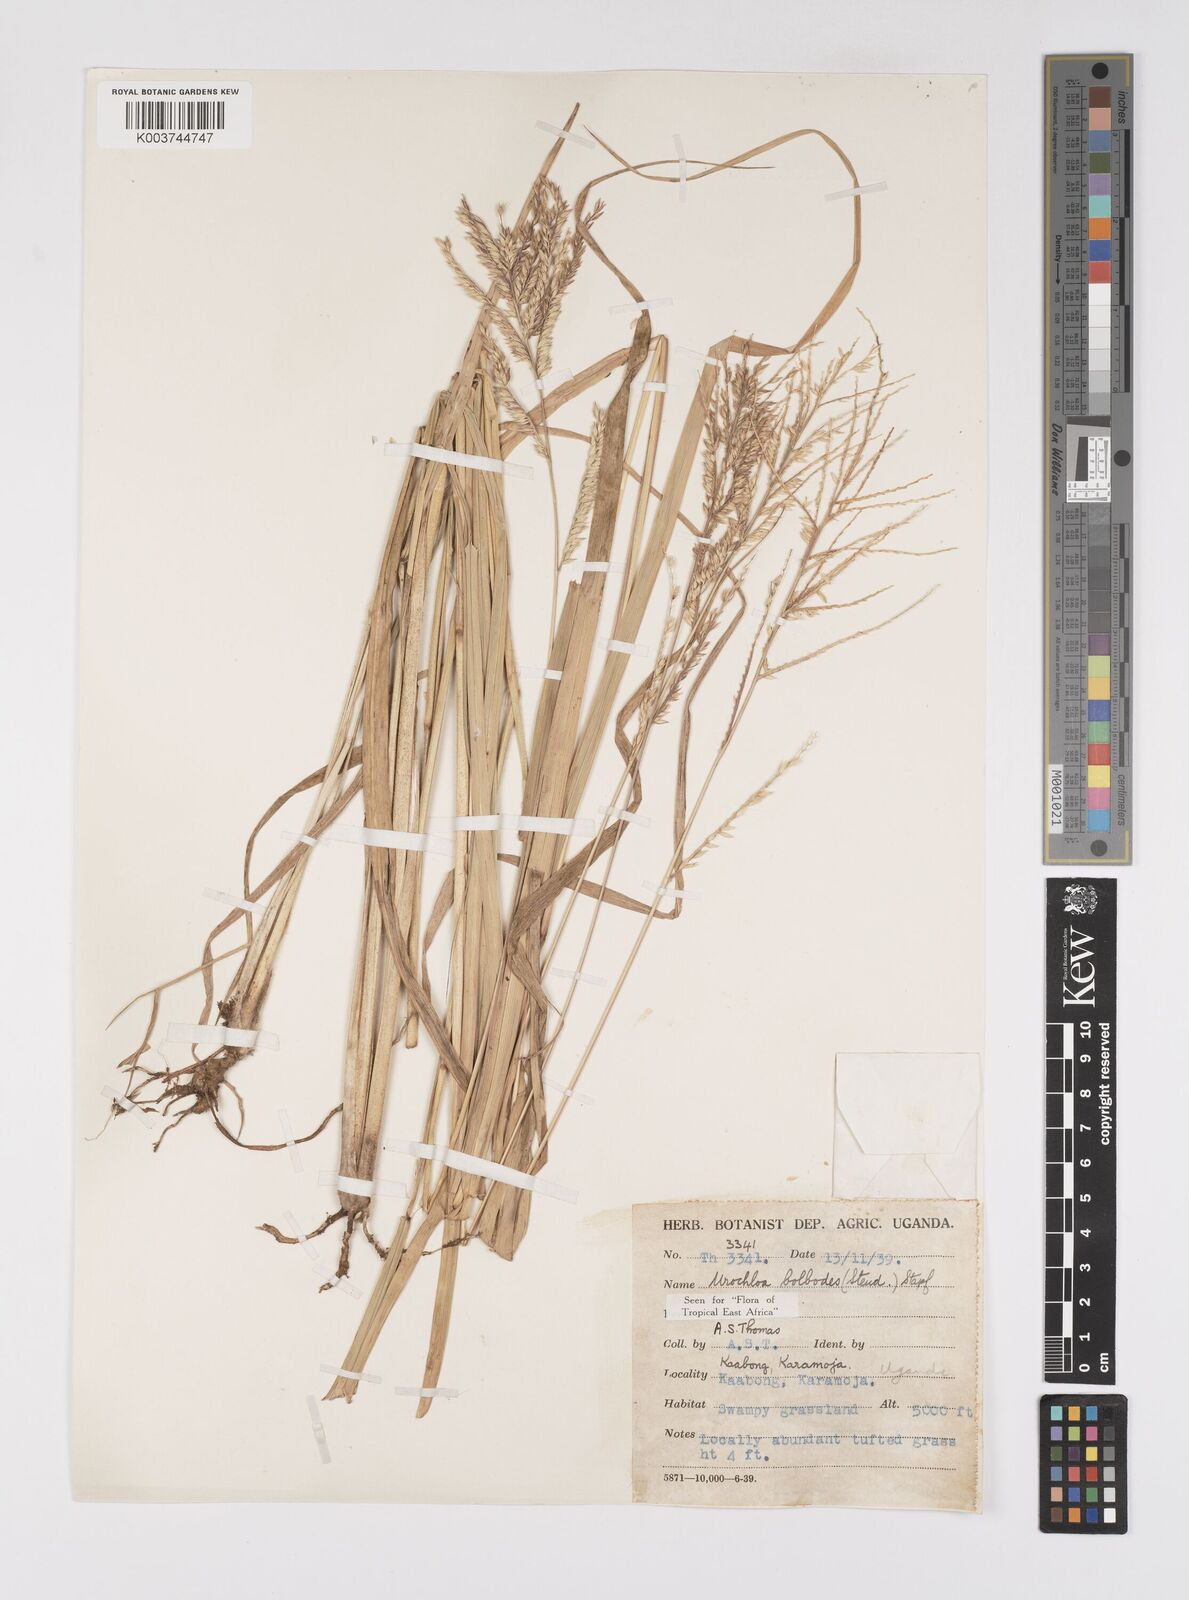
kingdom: Plantae
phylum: Tracheophyta
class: Liliopsida
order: Poales
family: Poaceae
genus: Urochloa
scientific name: Urochloa oligotricha
